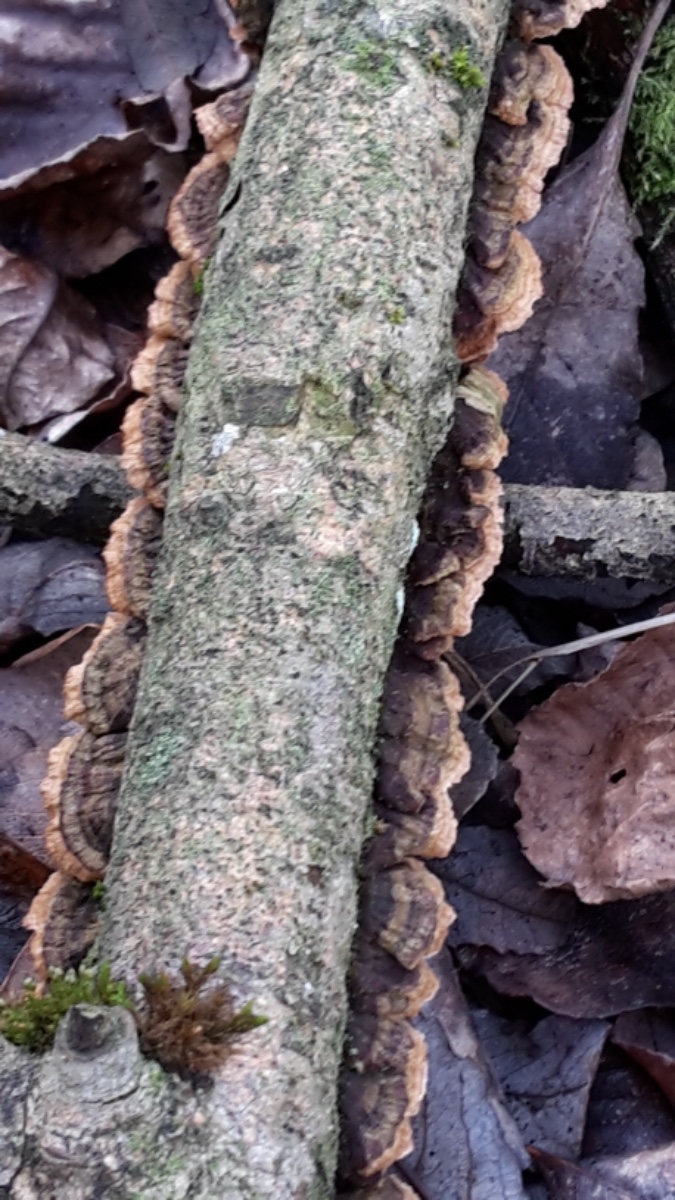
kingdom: Fungi
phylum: Basidiomycota
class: Agaricomycetes
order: Hymenochaetales
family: Hymenochaetaceae
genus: Hydnoporia
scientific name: Hydnoporia tabacina
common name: tobaksbrun ruslædersvamp
